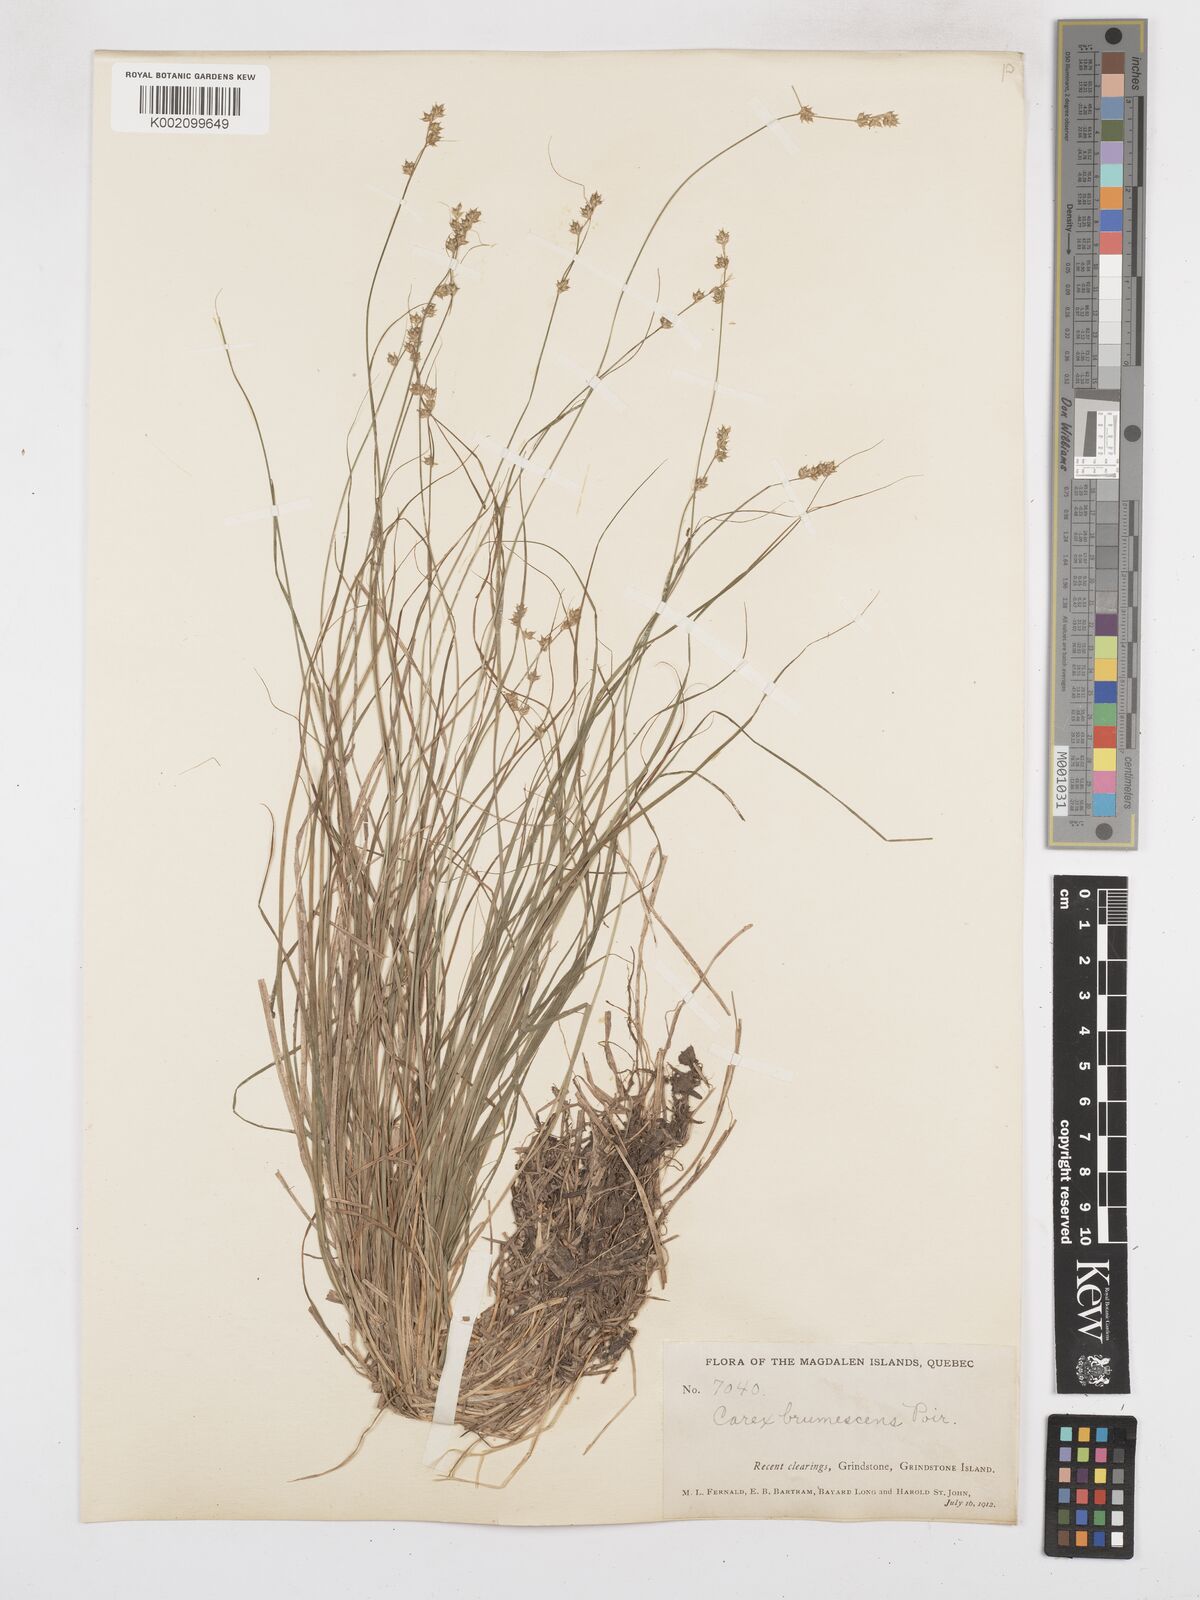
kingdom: Plantae
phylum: Tracheophyta
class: Liliopsida
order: Poales
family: Cyperaceae
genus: Carex
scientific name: Carex brunnescens
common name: Brown sedge
